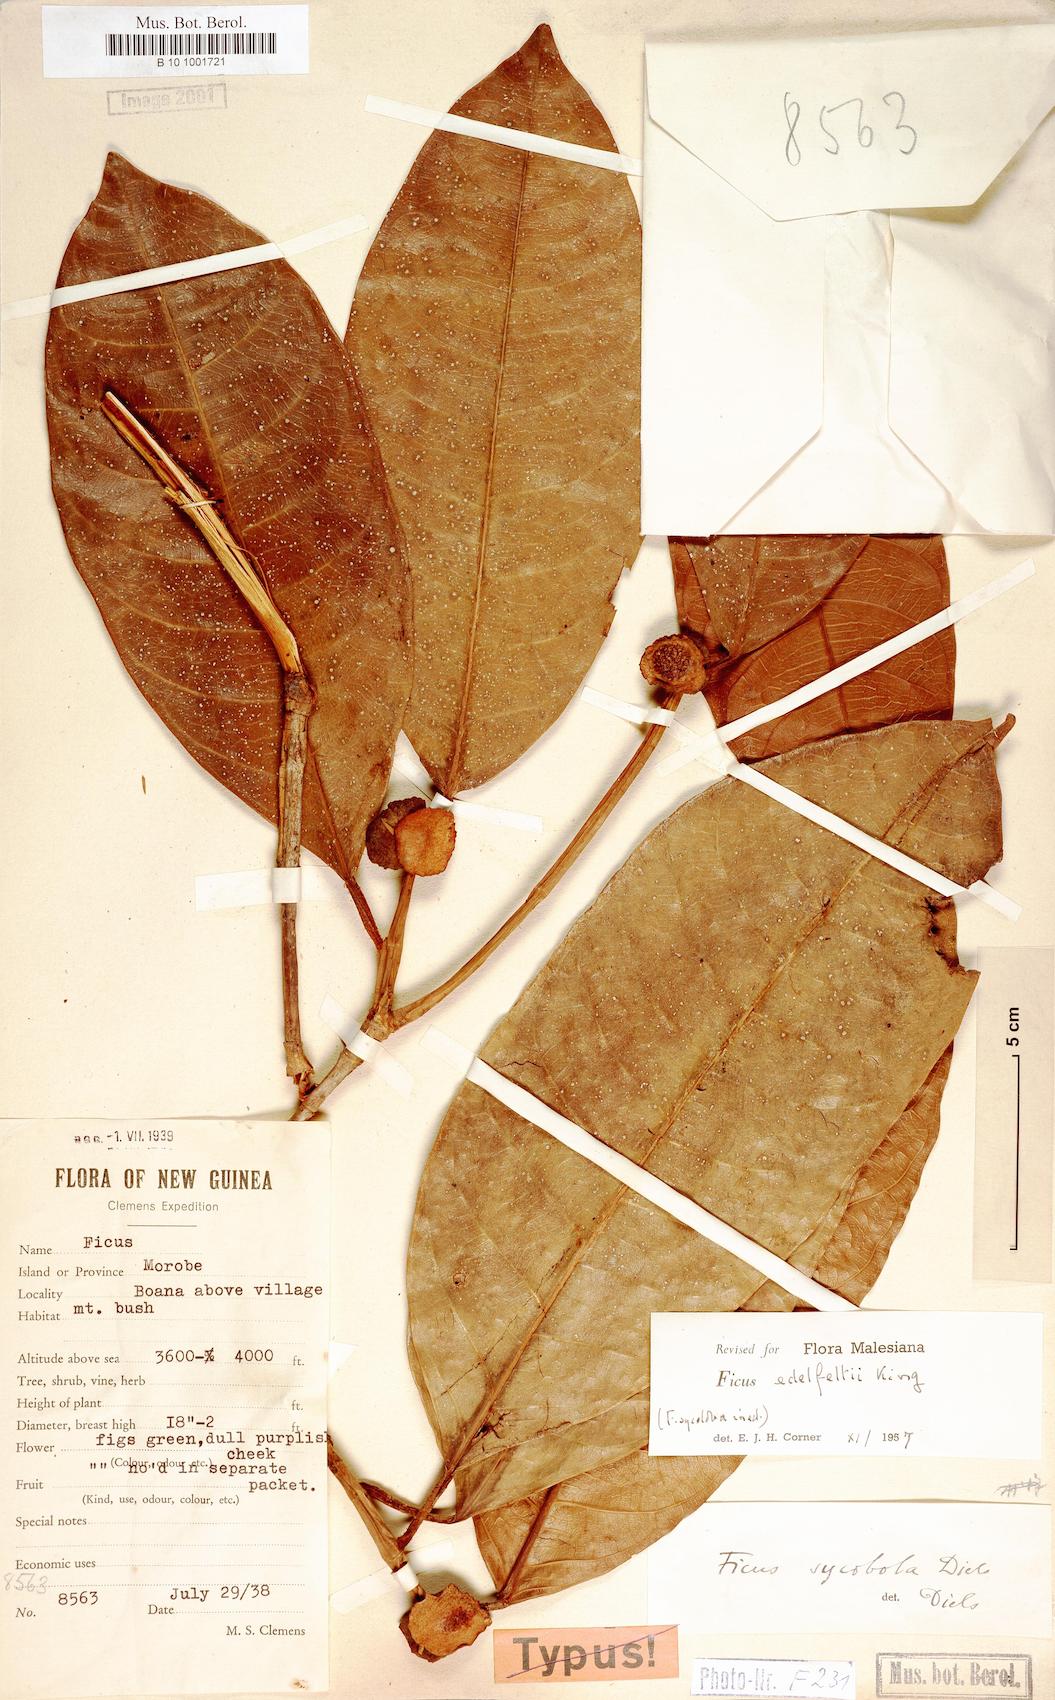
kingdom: Plantae
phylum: Tracheophyta
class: Magnoliopsida
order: Rosales
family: Moraceae
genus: Ficus
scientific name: Ficus edelfeltii
